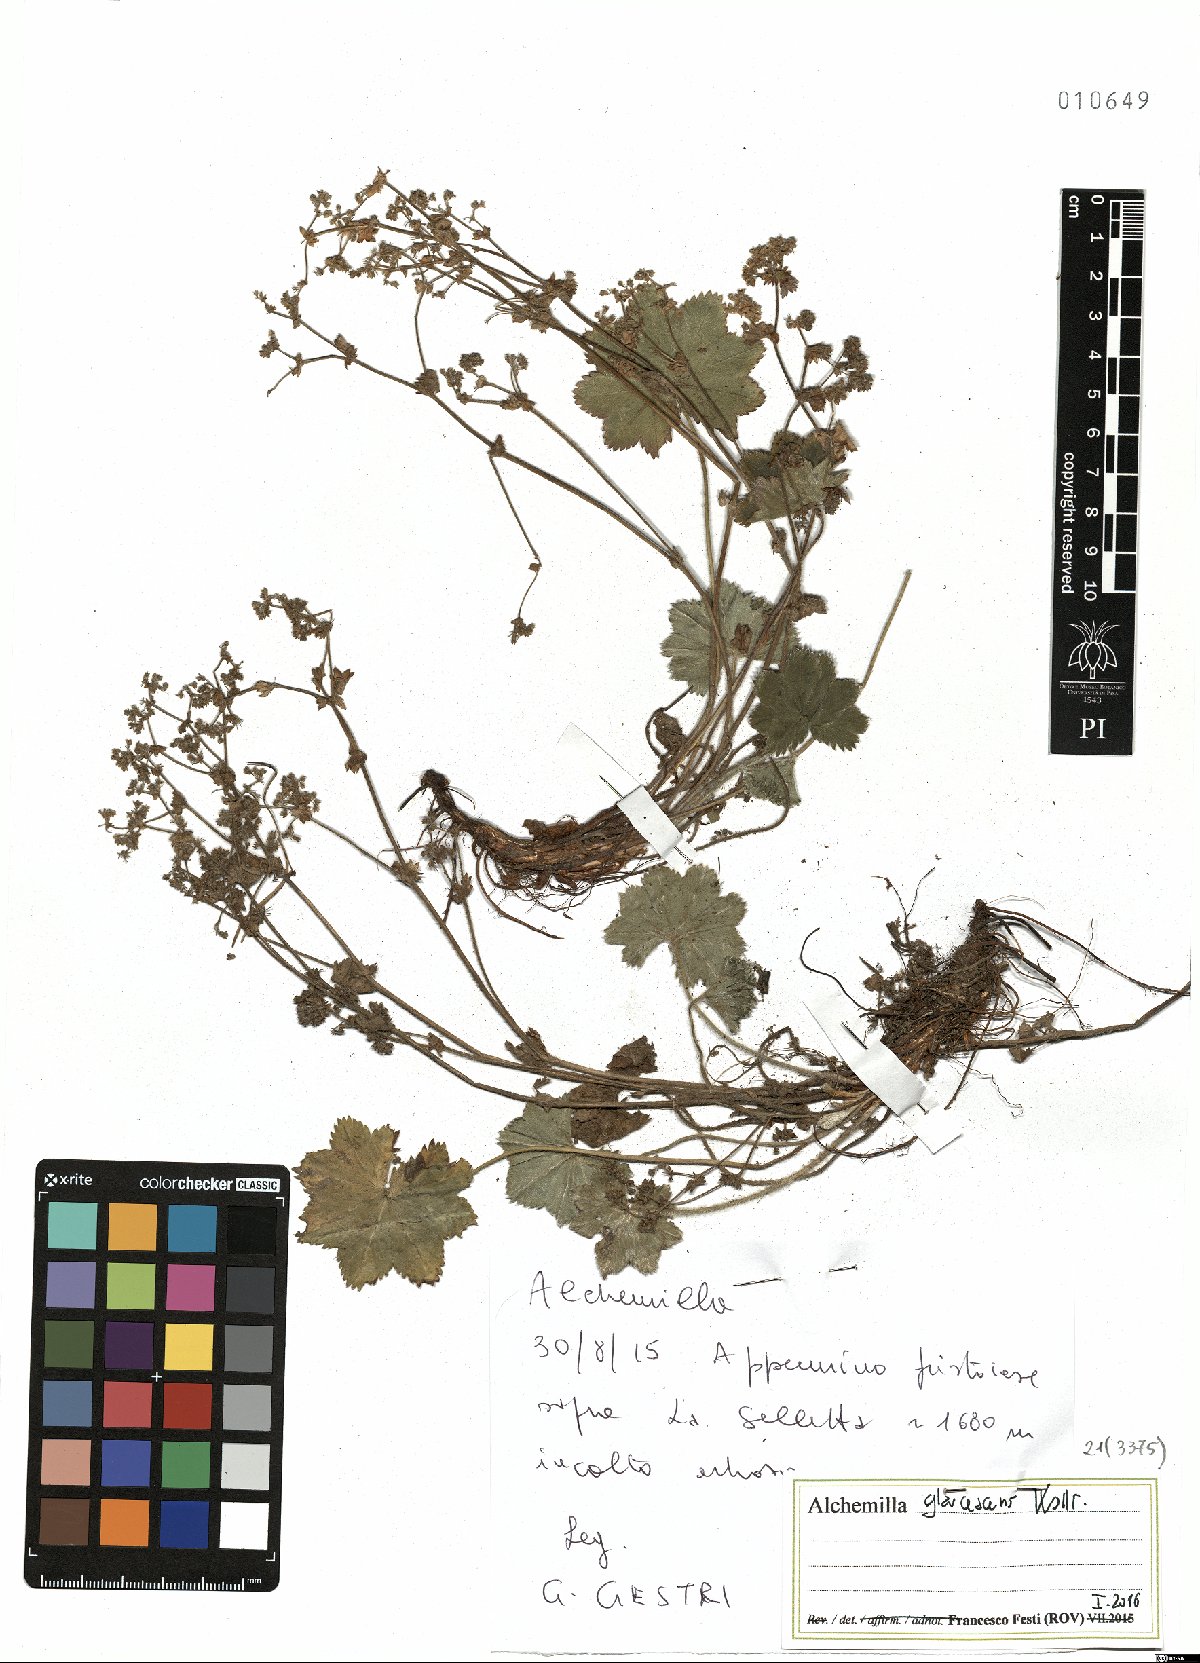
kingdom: Plantae
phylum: Tracheophyta
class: Magnoliopsida
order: Rosales
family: Rosaceae
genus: Alchemilla
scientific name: Alchemilla glaucescens
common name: Silky lady's mantle
